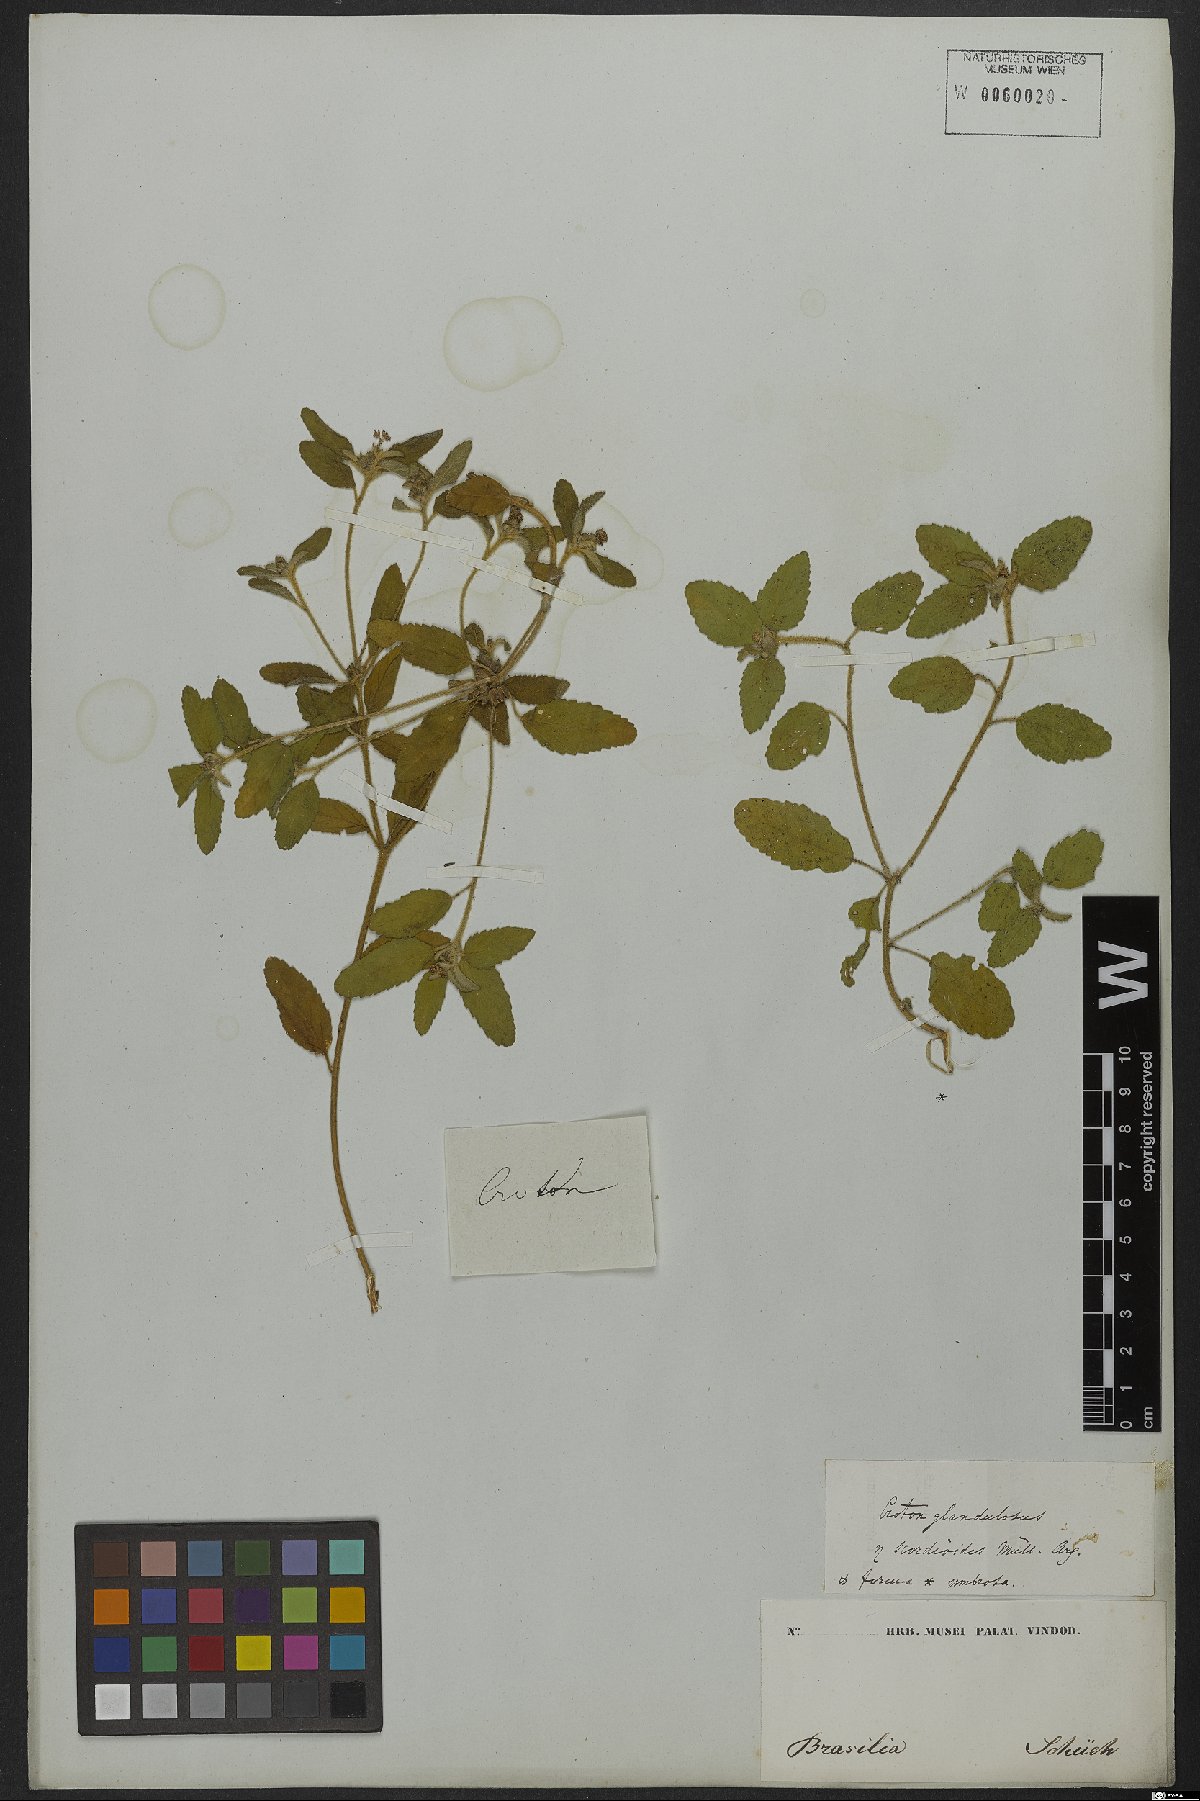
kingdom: Plantae
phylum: Tracheophyta
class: Magnoliopsida
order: Malpighiales
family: Euphorbiaceae
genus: Croton
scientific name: Croton glandulosus
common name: Tropic croton
